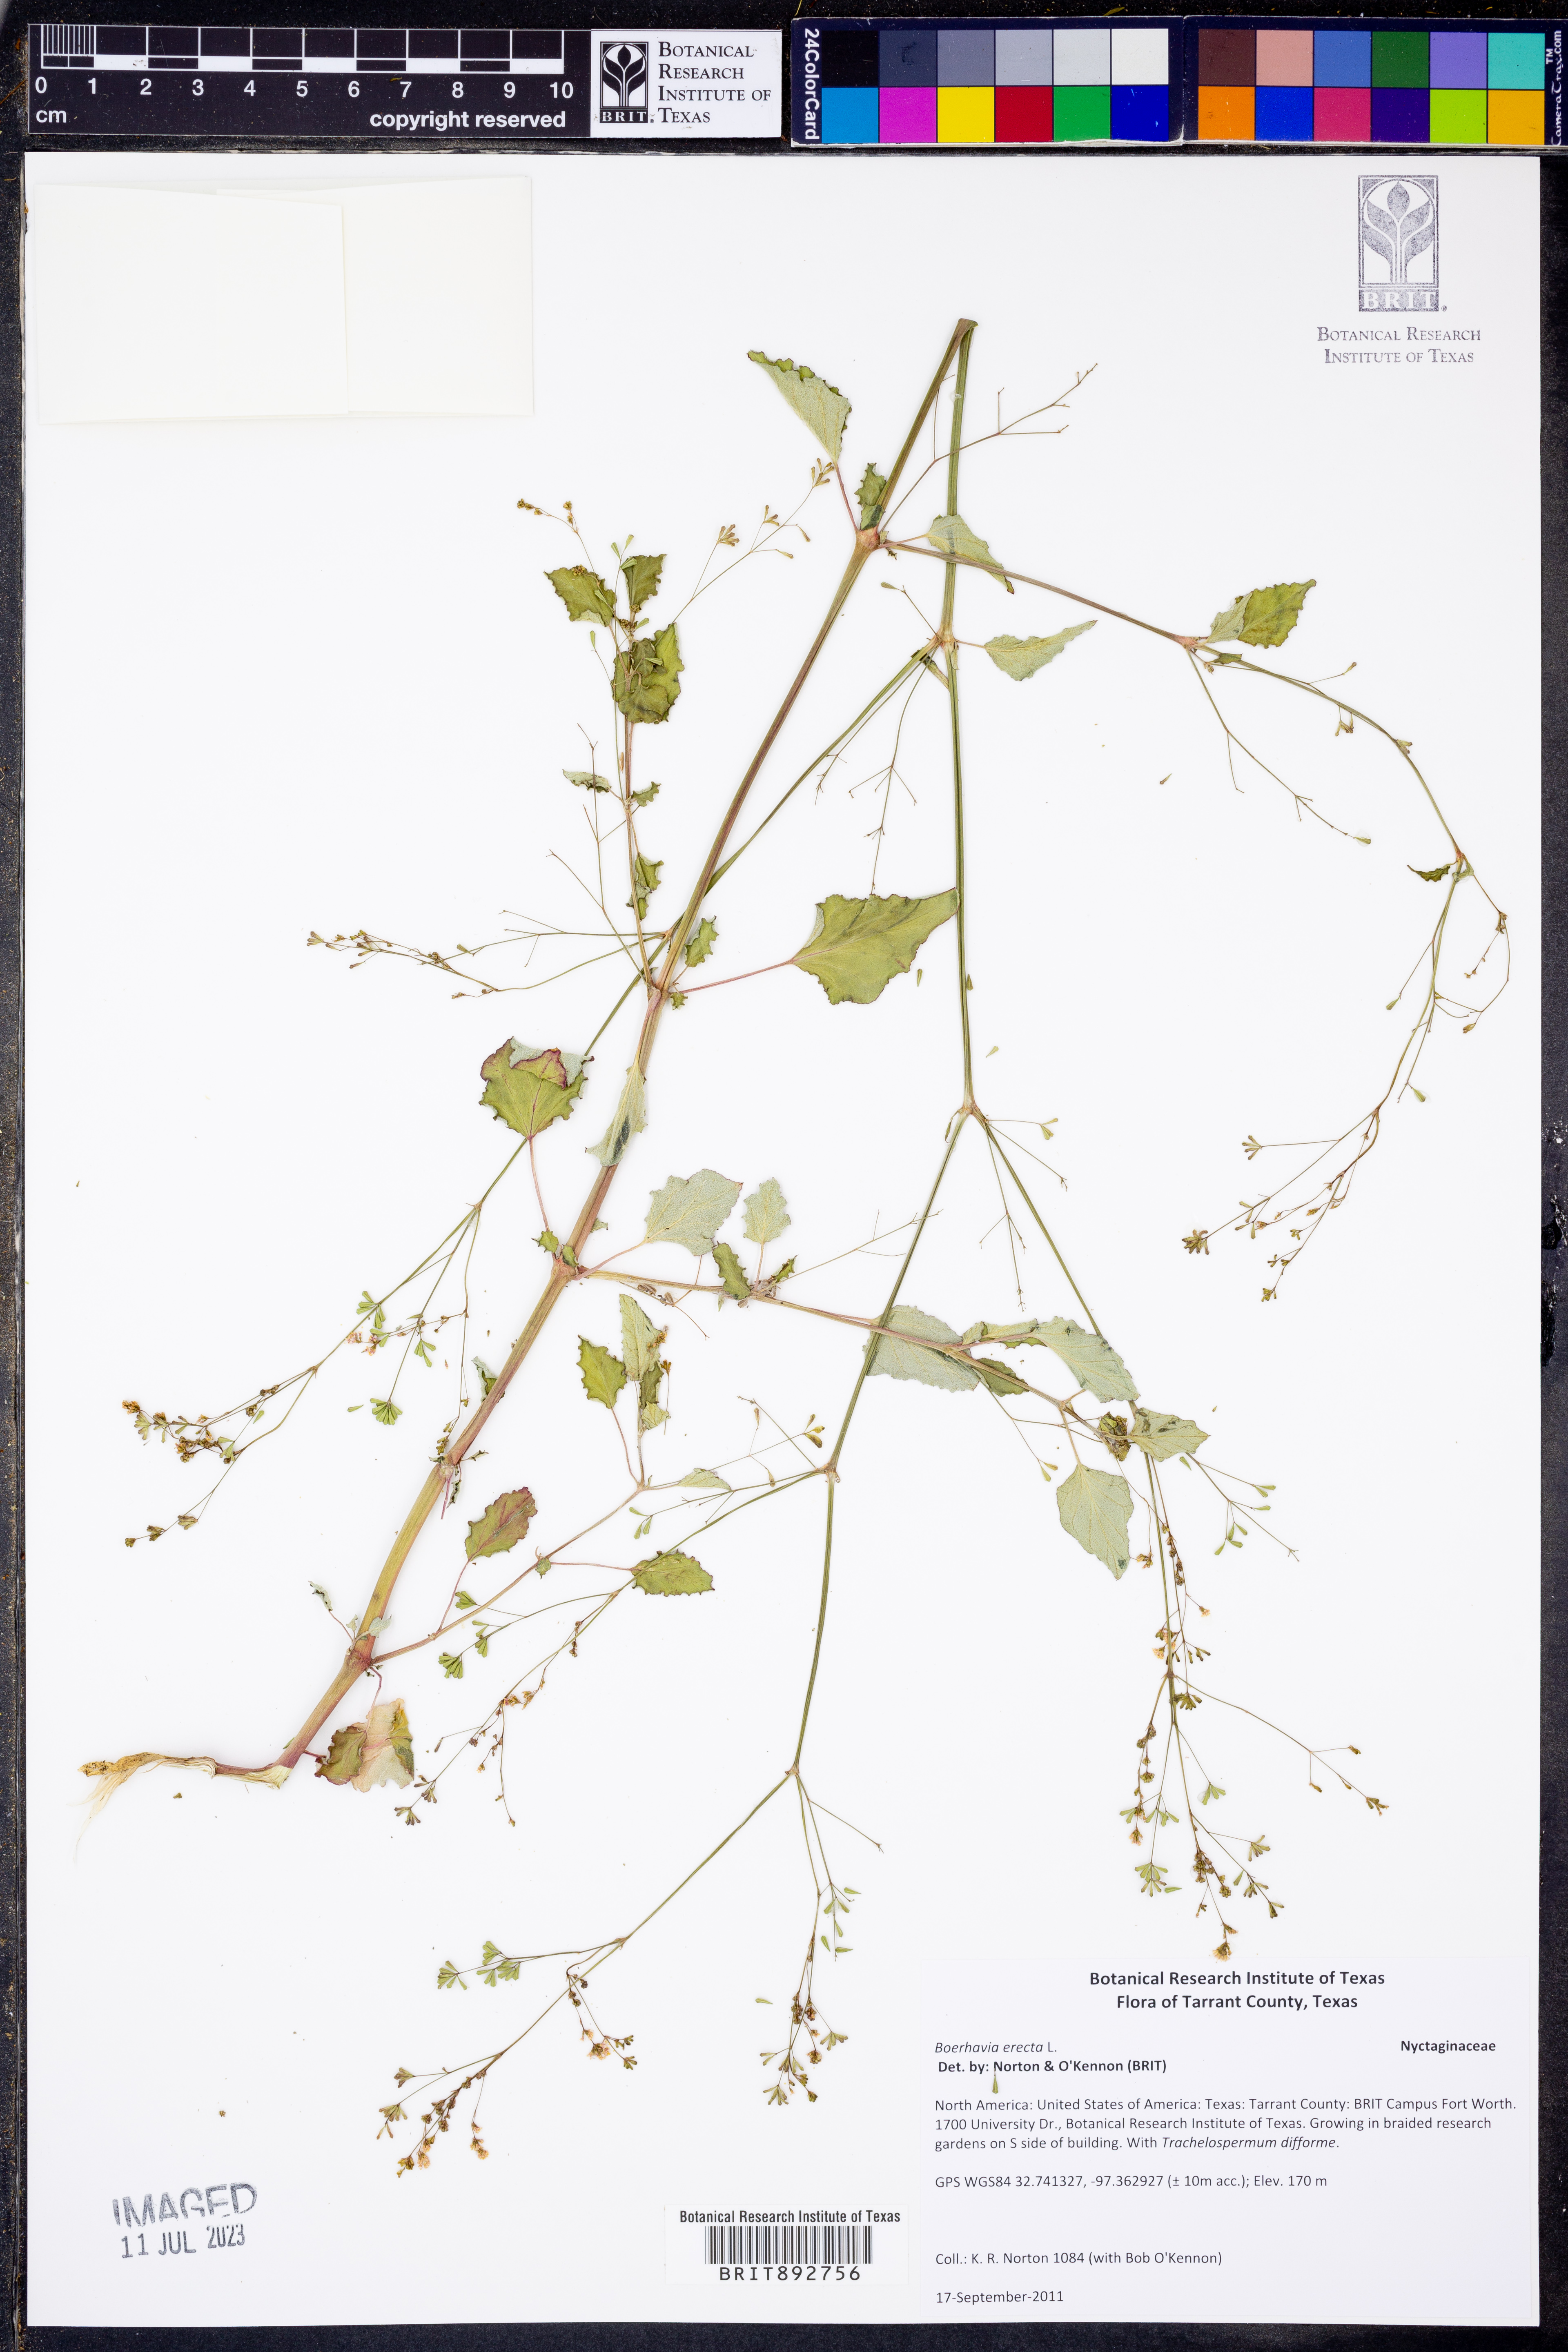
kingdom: Plantae
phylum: Tracheophyta
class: Magnoliopsida
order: Caryophyllales
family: Nyctaginaceae
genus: Boerhavia
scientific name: Boerhavia erecta
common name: Erect spiderling
